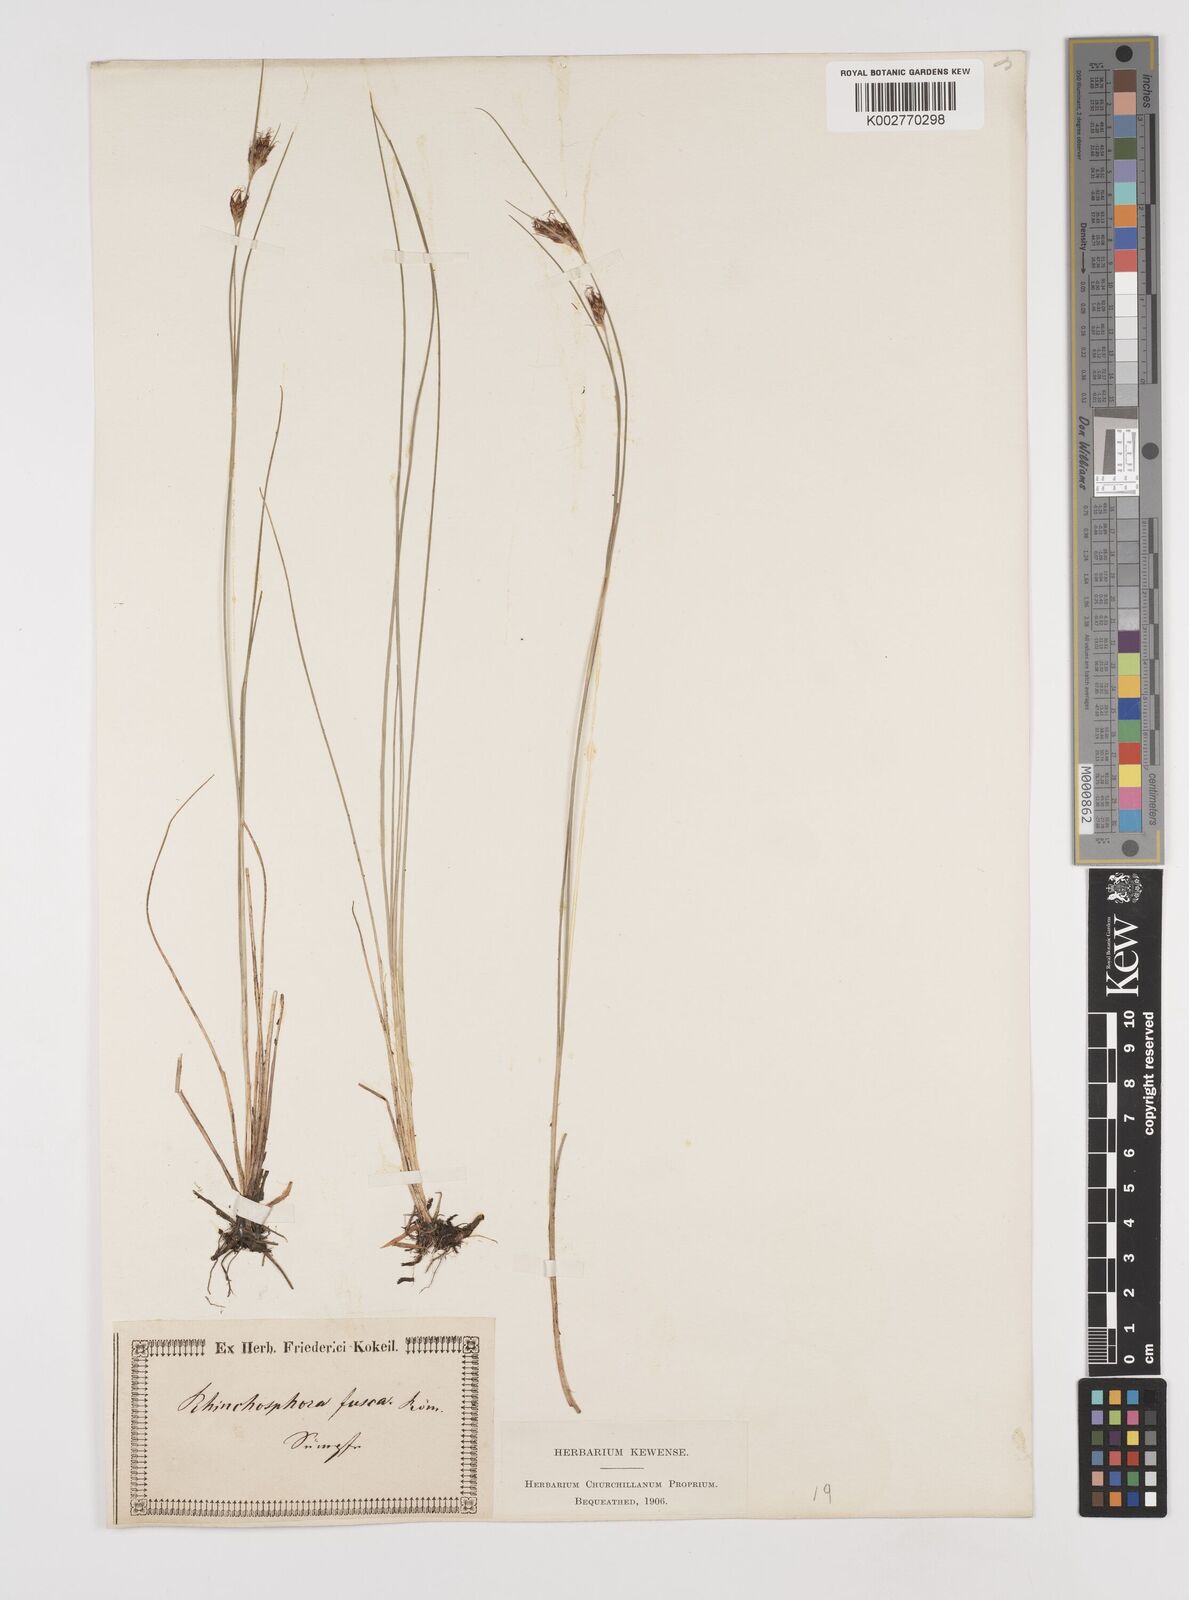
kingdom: Plantae
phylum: Tracheophyta
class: Liliopsida
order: Poales
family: Cyperaceae
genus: Rhynchospora
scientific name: Rhynchospora fusca
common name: Brown beak-sedge
